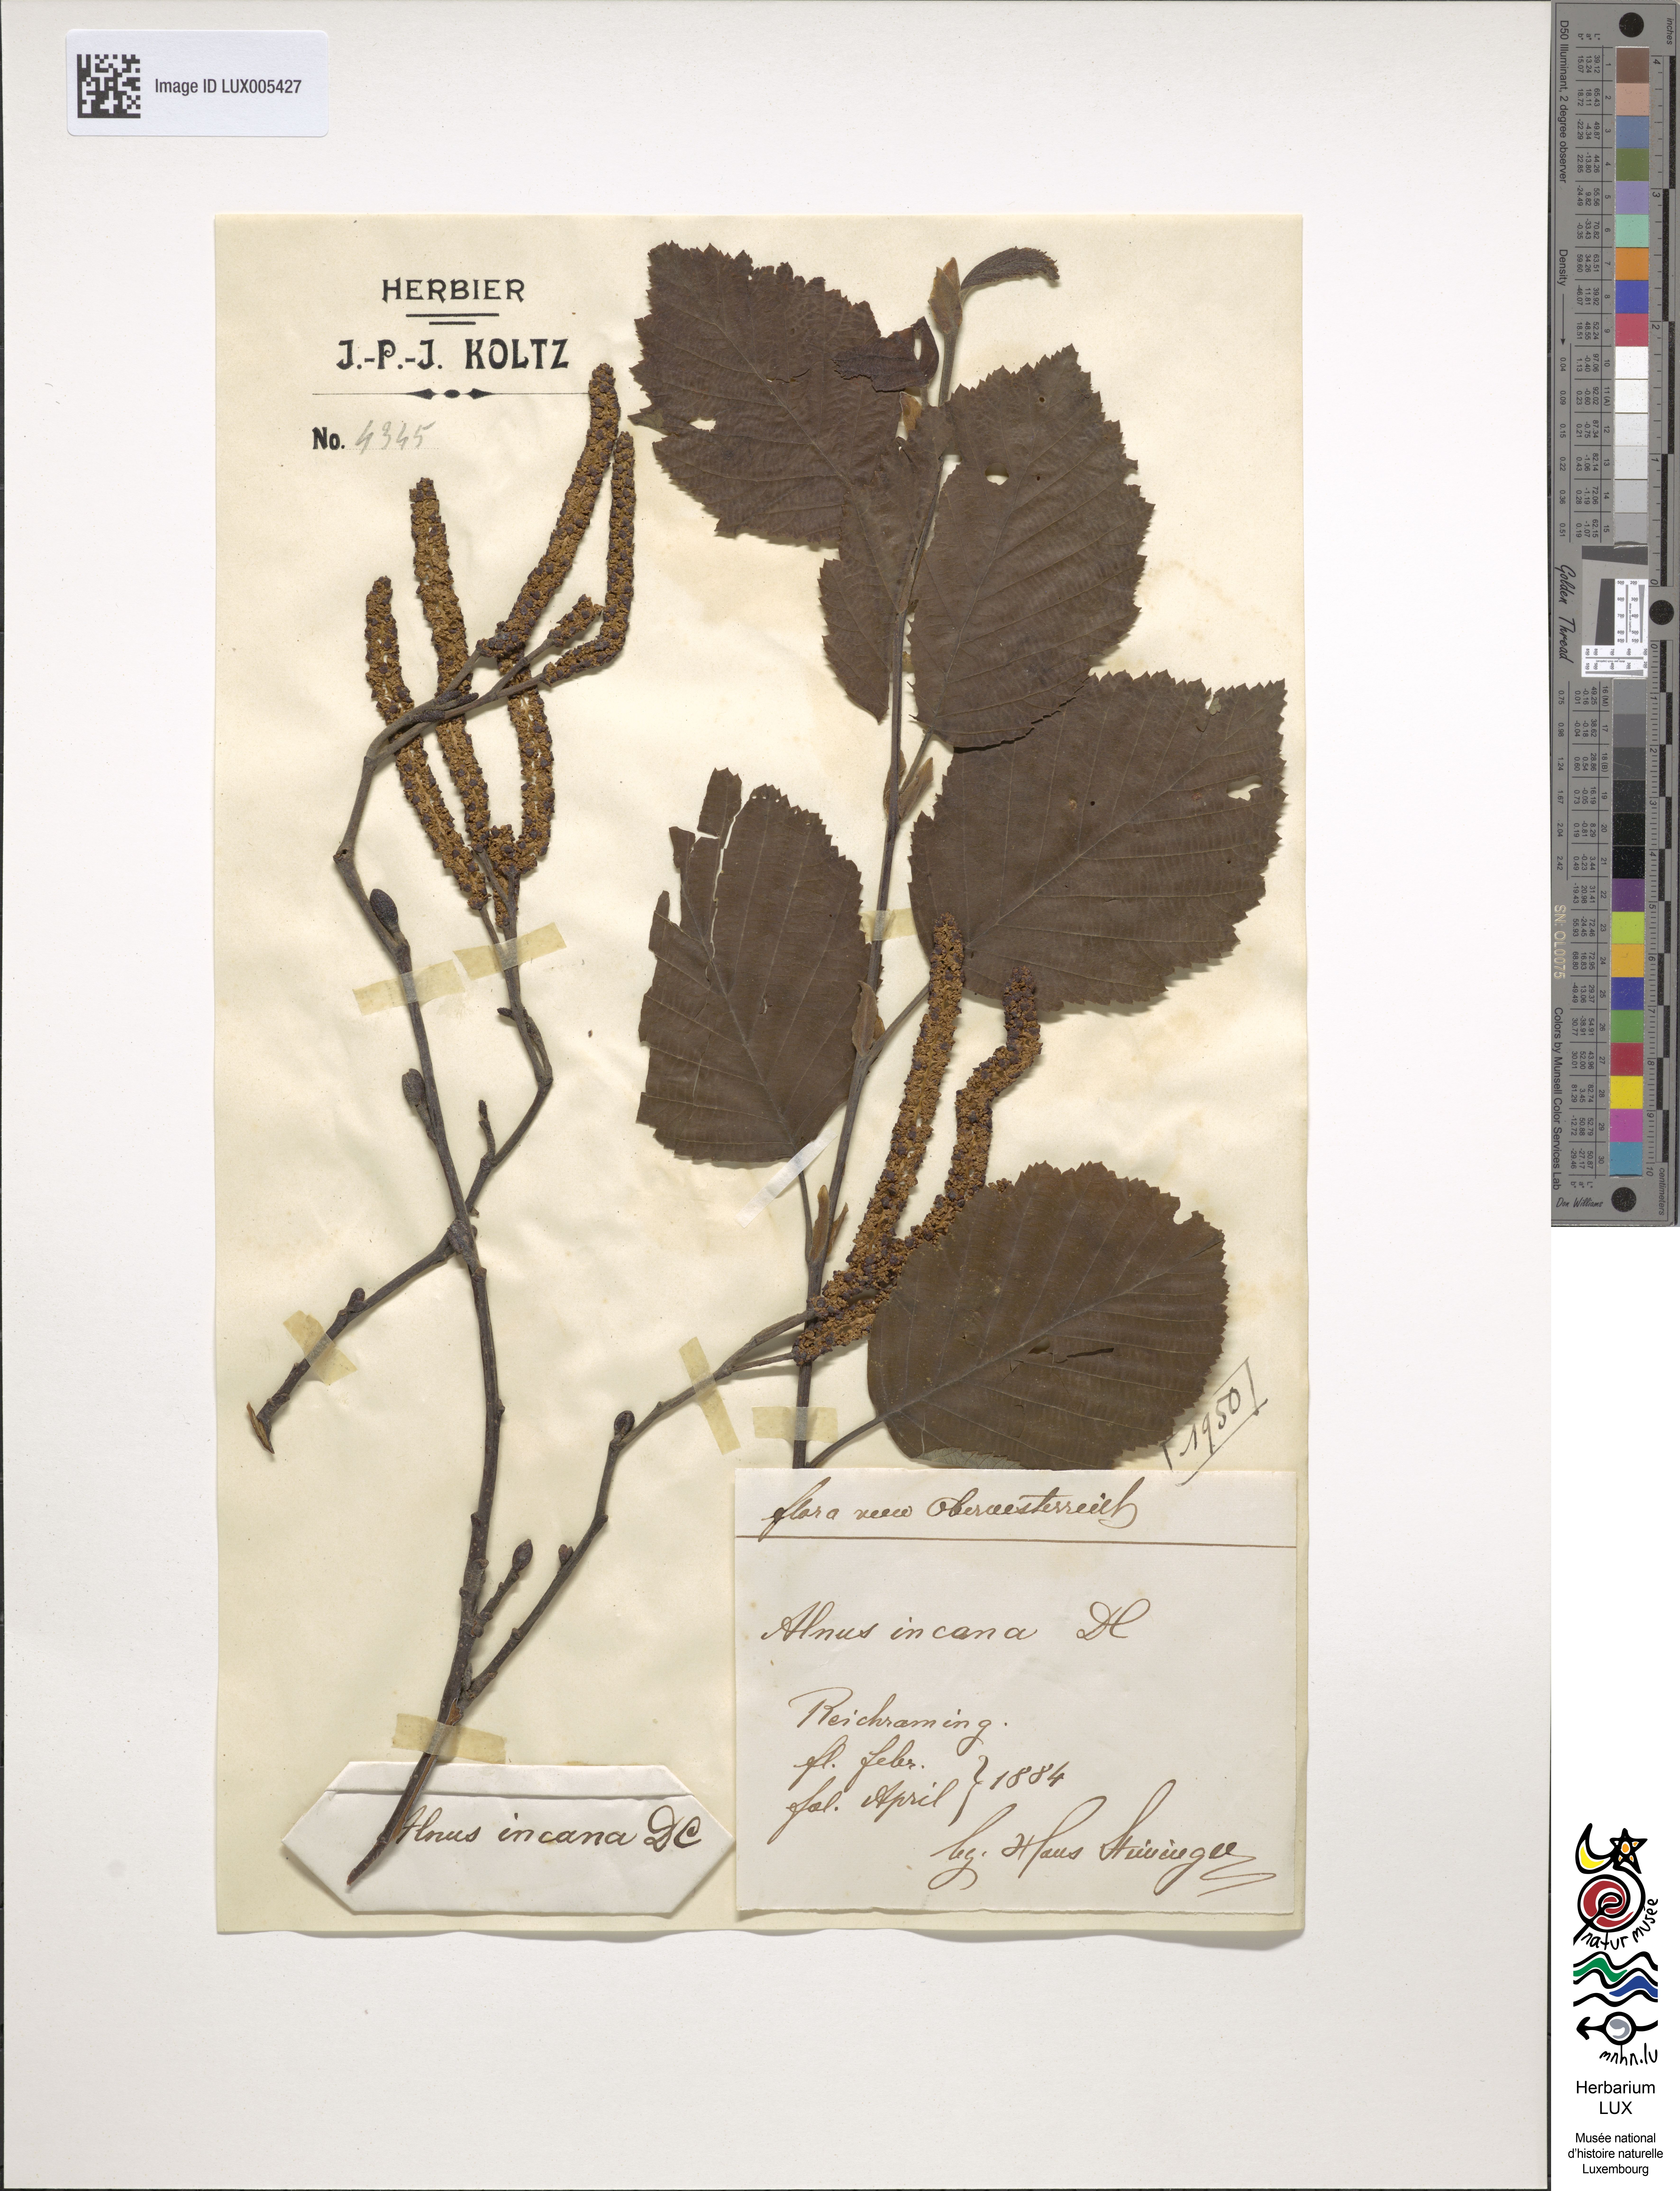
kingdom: Plantae
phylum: Tracheophyta
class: Magnoliopsida
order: Fagales
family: Betulaceae
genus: Alnus
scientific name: Alnus incana
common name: Grey alder
